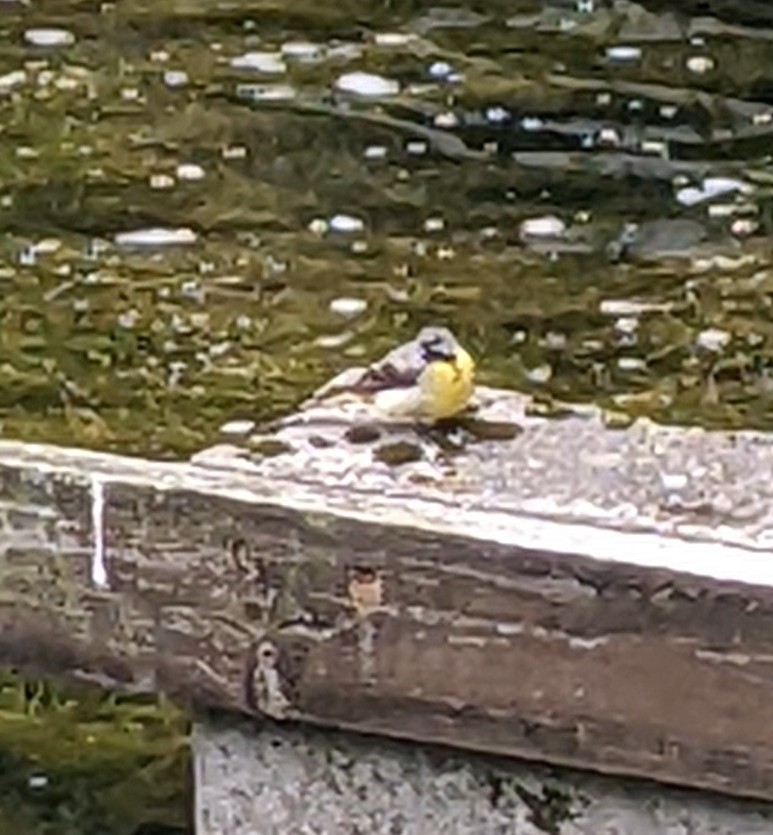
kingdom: Animalia
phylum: Chordata
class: Aves
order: Passeriformes
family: Motacillidae
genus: Motacilla
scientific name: Motacilla cinerea
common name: Bjergvipstjert
